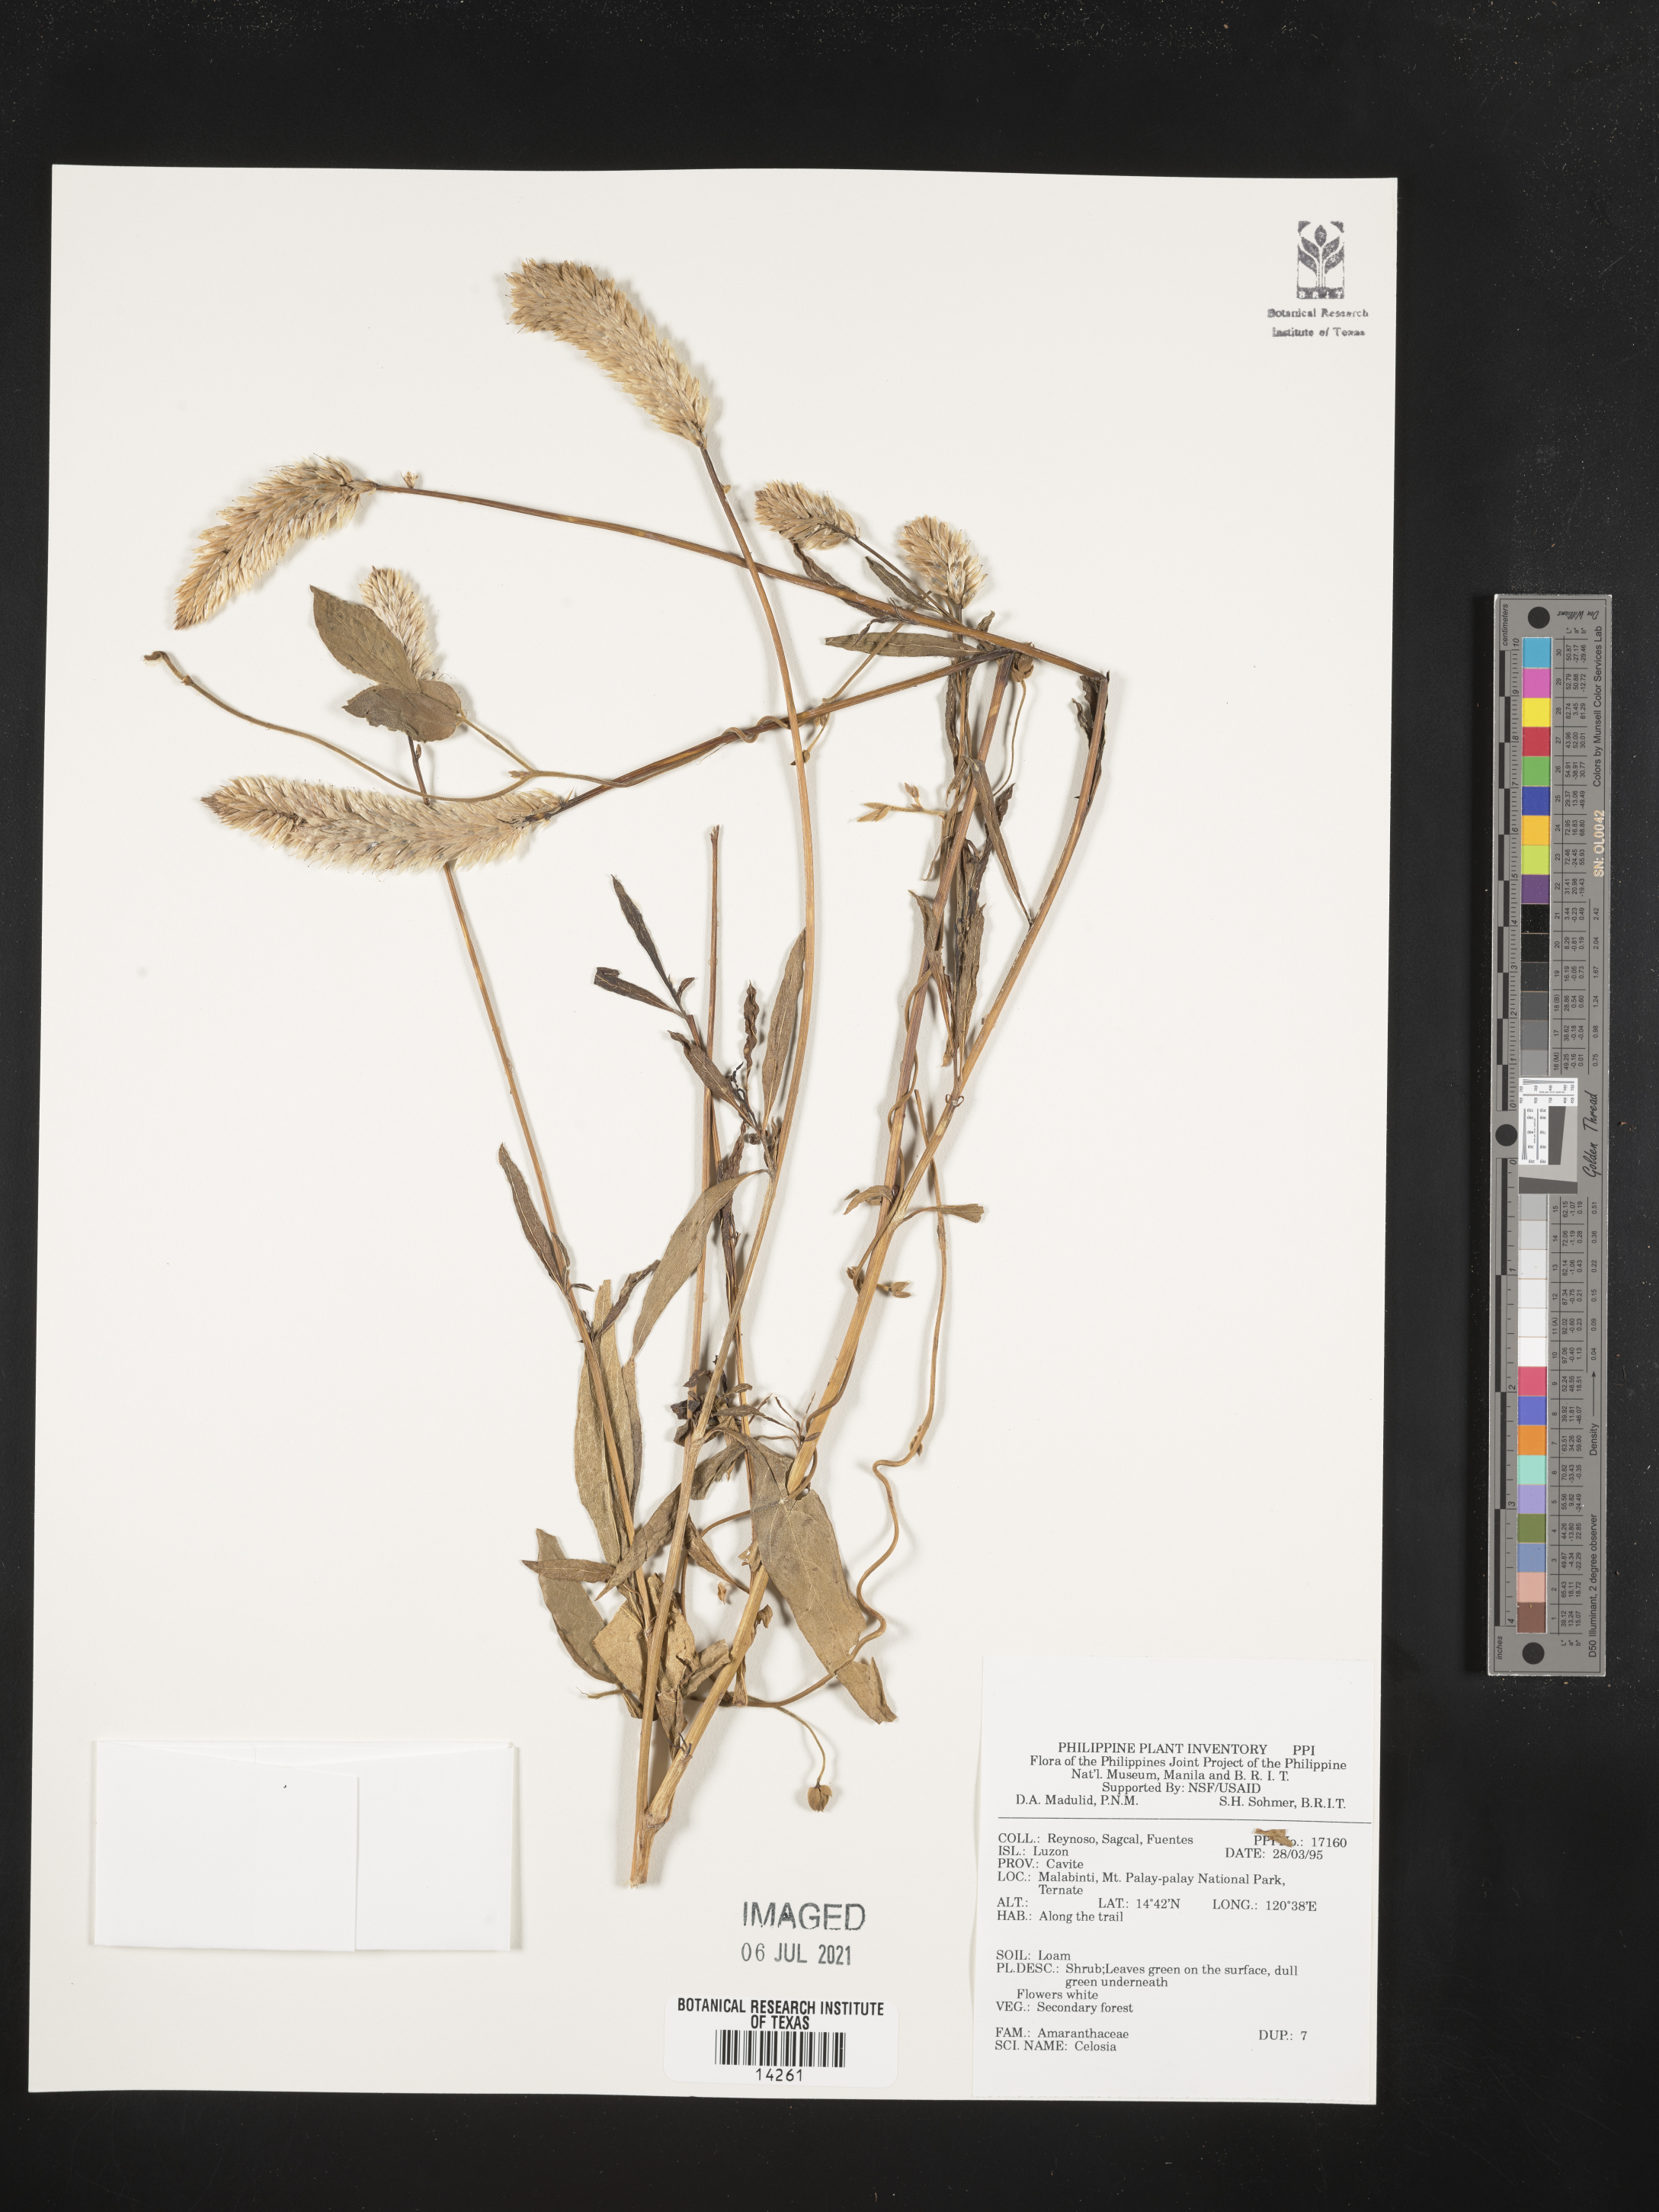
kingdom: Plantae
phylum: Tracheophyta
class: Magnoliopsida
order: Caryophyllales
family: Amaranthaceae
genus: Celosia
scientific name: Celosia
